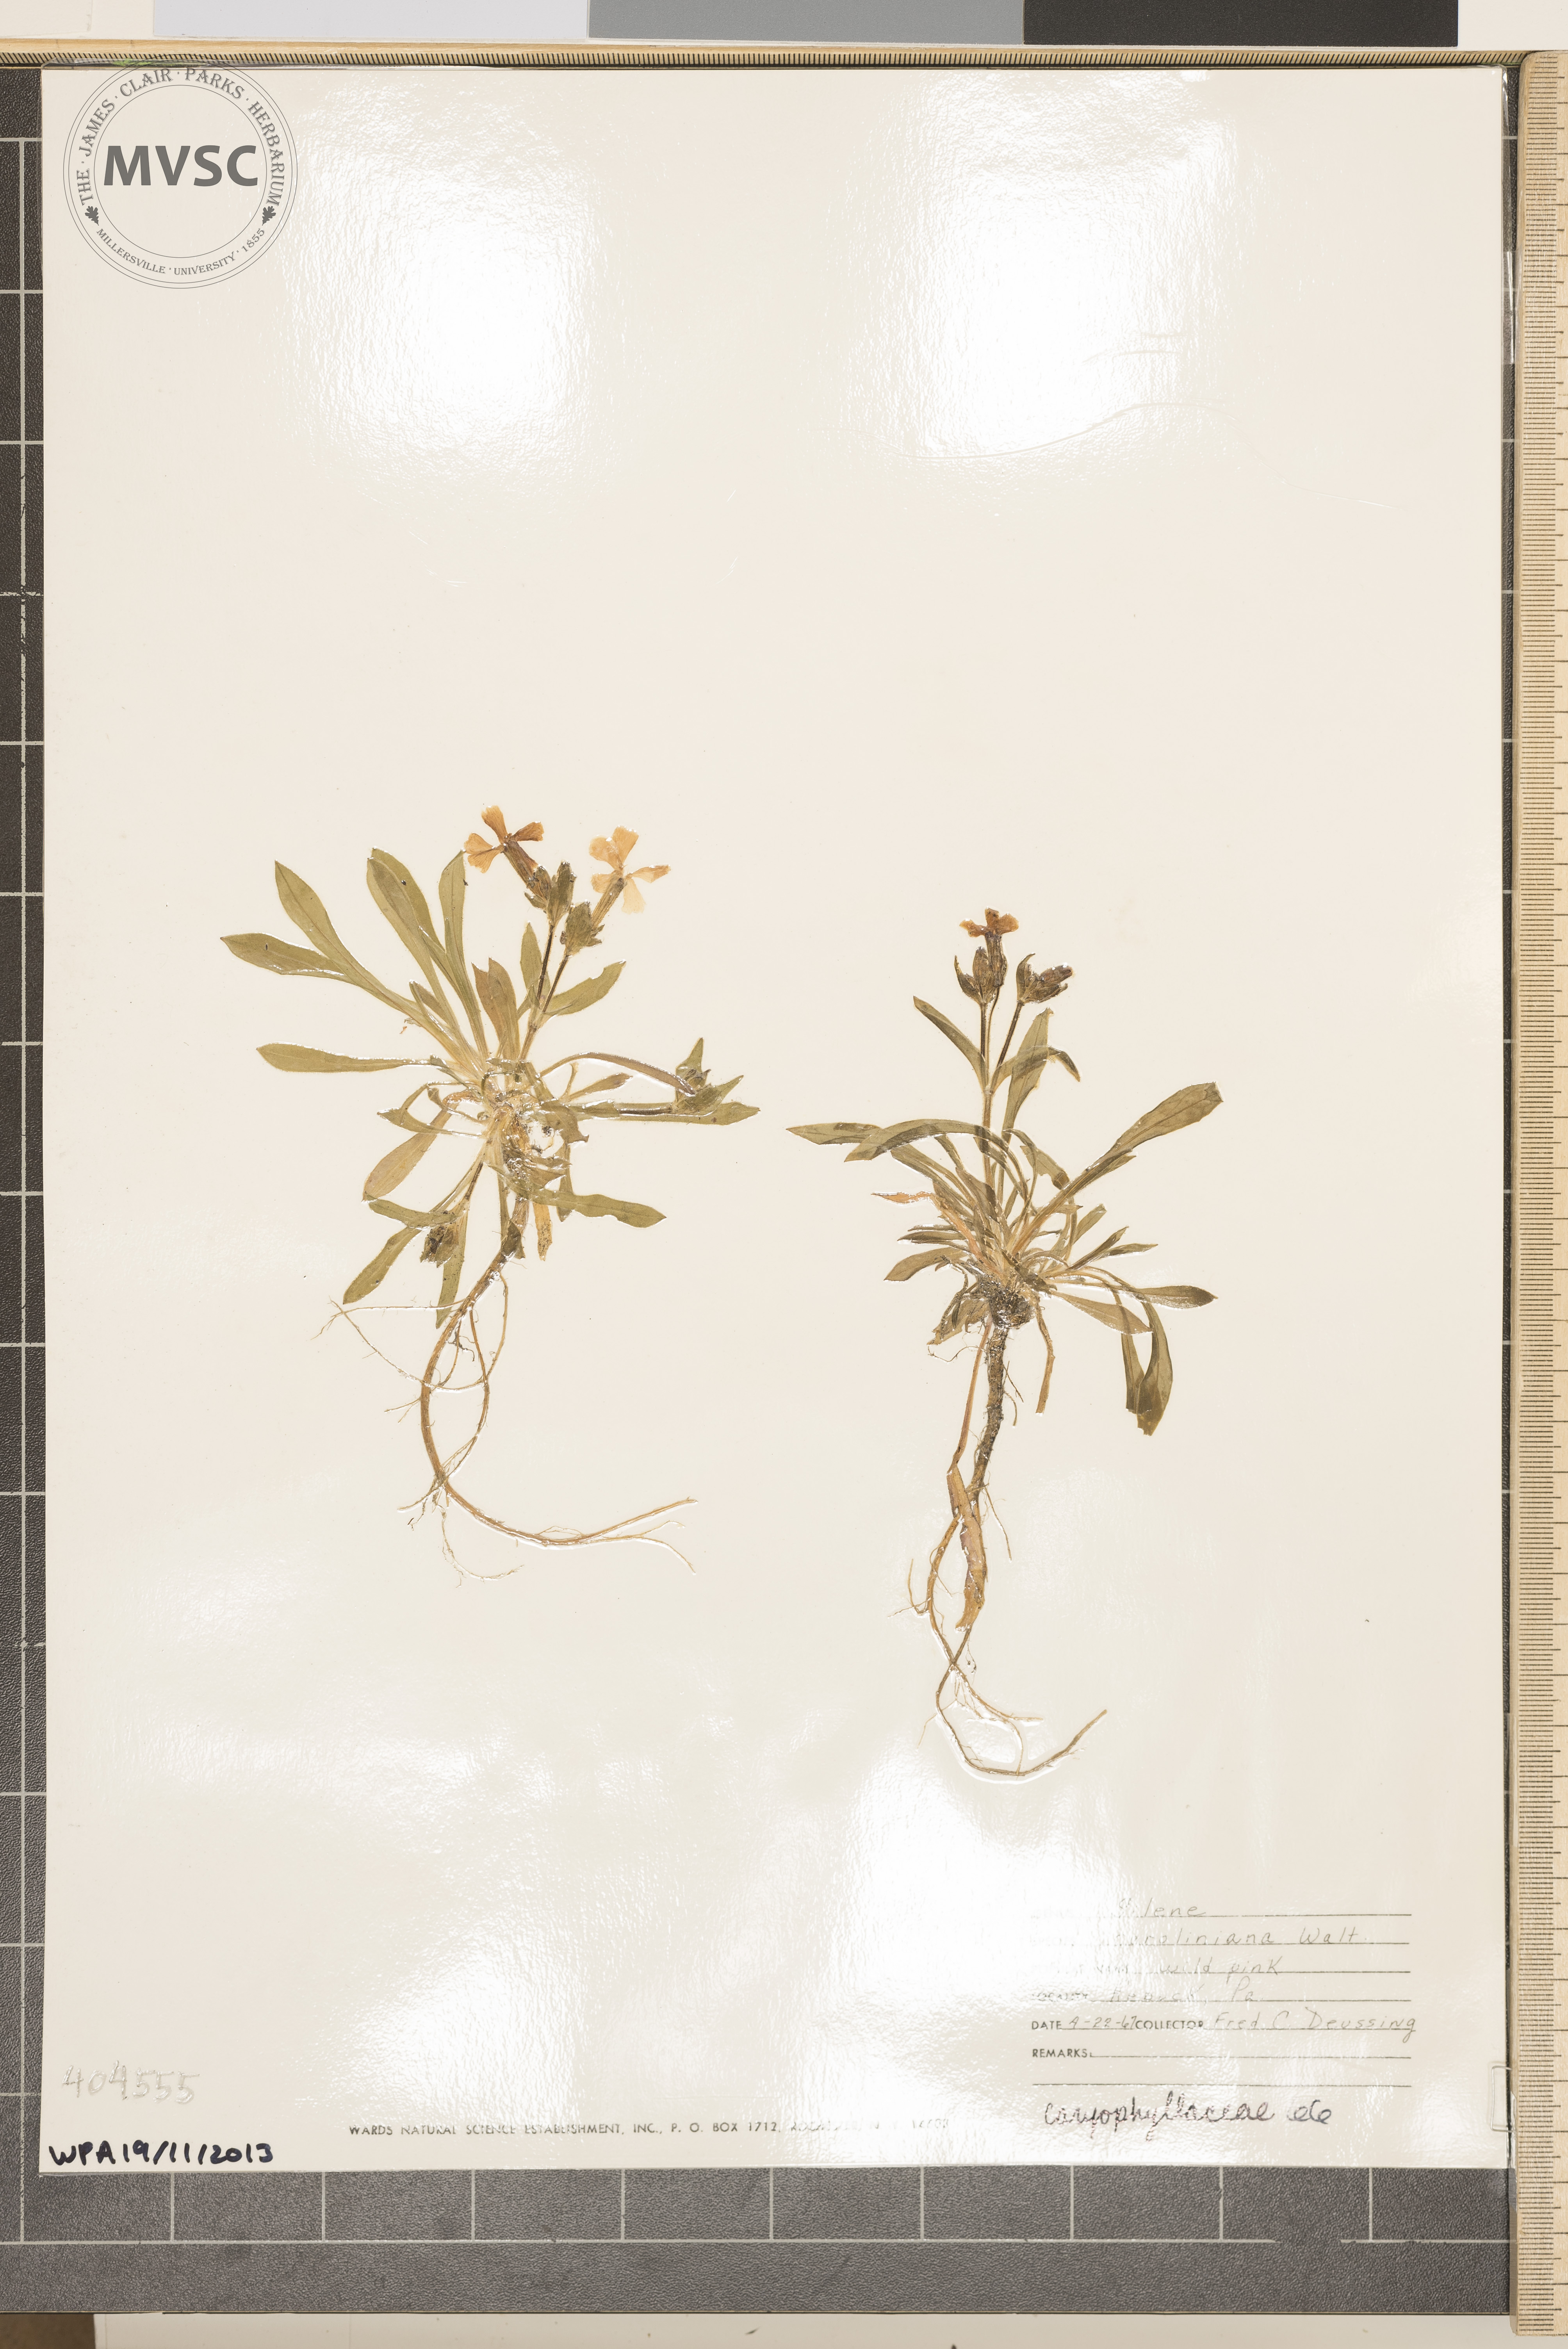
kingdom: Plantae
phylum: Tracheophyta
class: Magnoliopsida
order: Caryophyllales
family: Caryophyllaceae
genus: Silene
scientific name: Silene caroliniana
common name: Wild Pink
